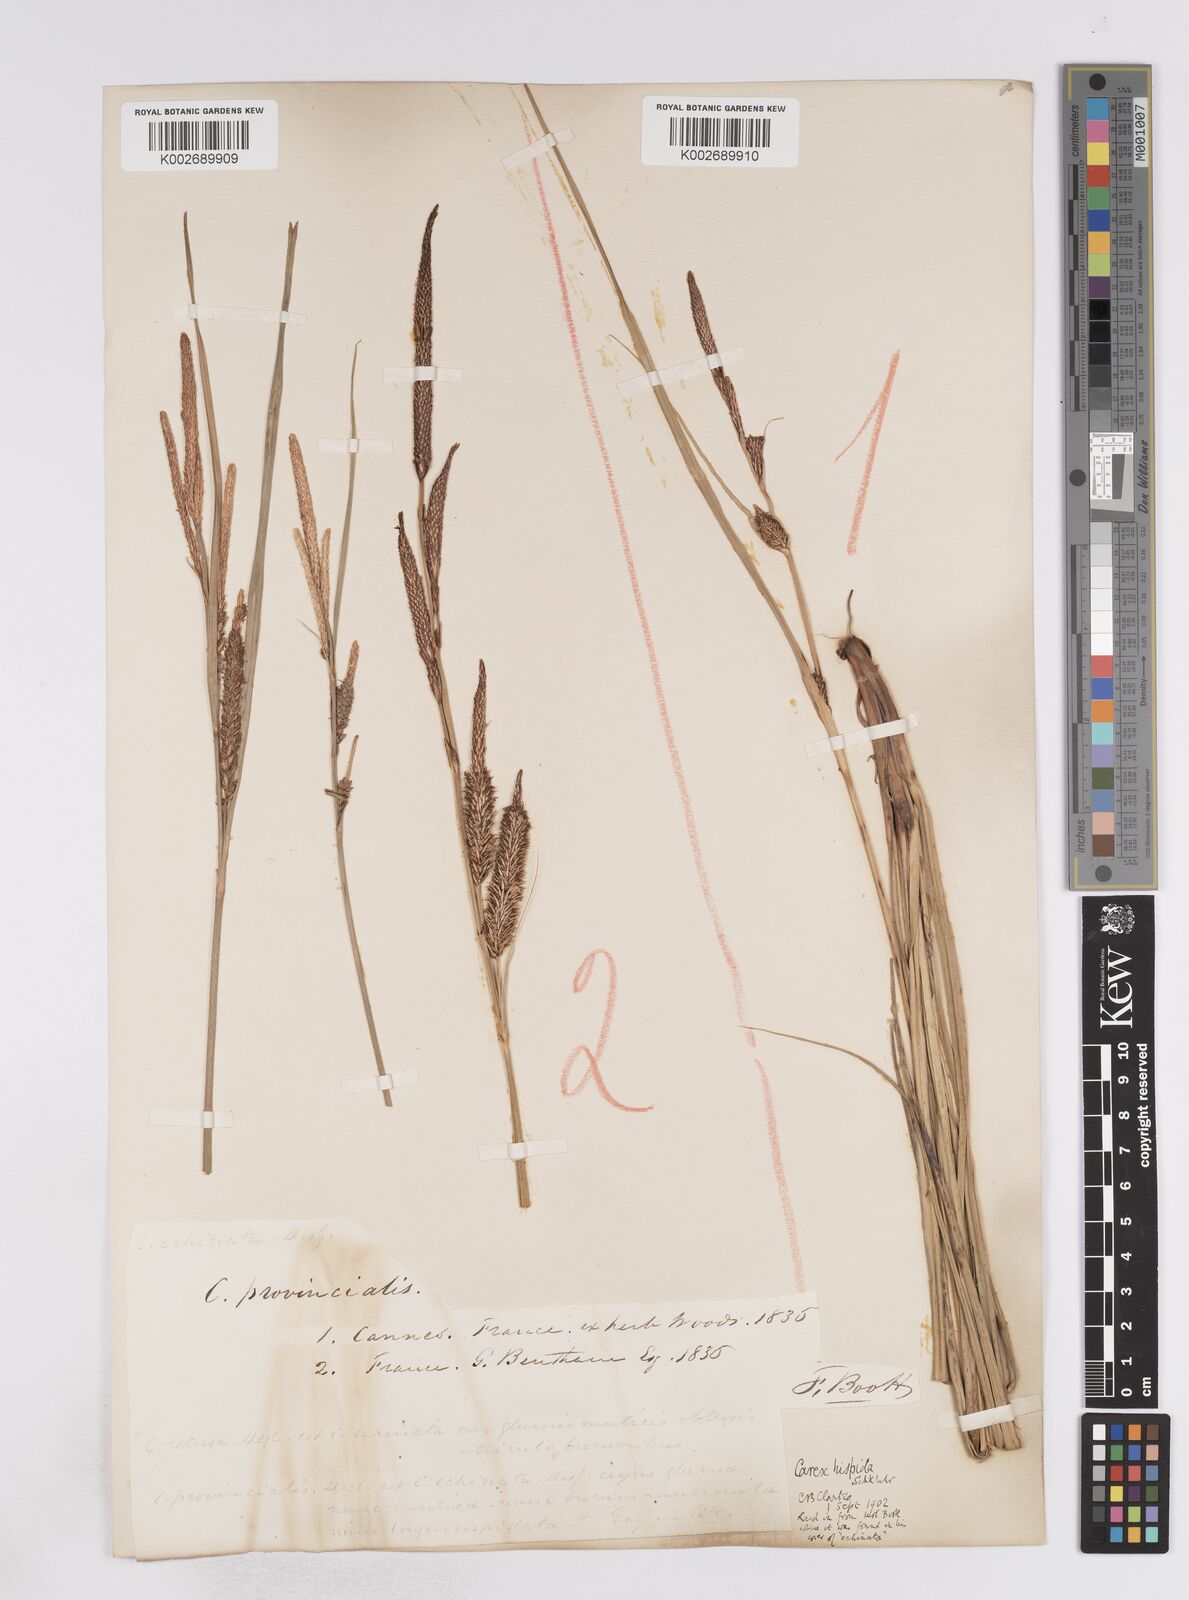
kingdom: Plantae
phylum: Tracheophyta
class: Liliopsida
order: Poales
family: Cyperaceae
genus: Carex
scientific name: Carex hispida
